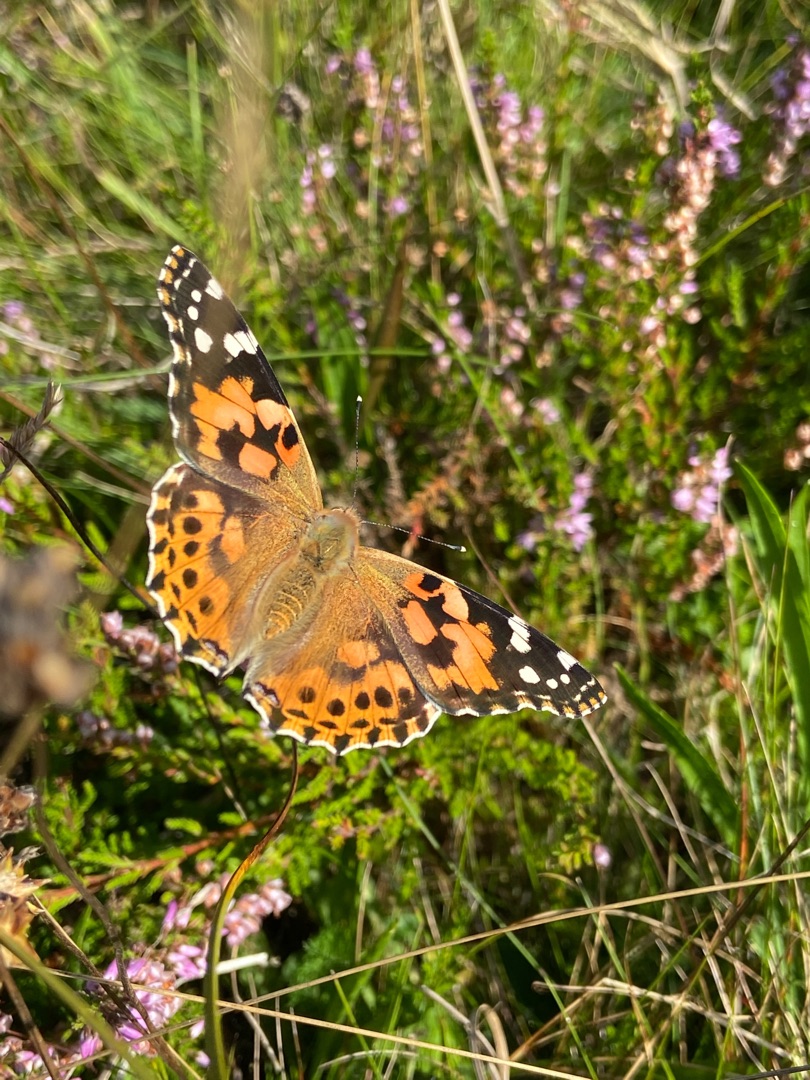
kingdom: Animalia
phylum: Arthropoda
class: Insecta
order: Lepidoptera
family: Nymphalidae
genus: Vanessa
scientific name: Vanessa cardui
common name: Tidselsommerfugl
